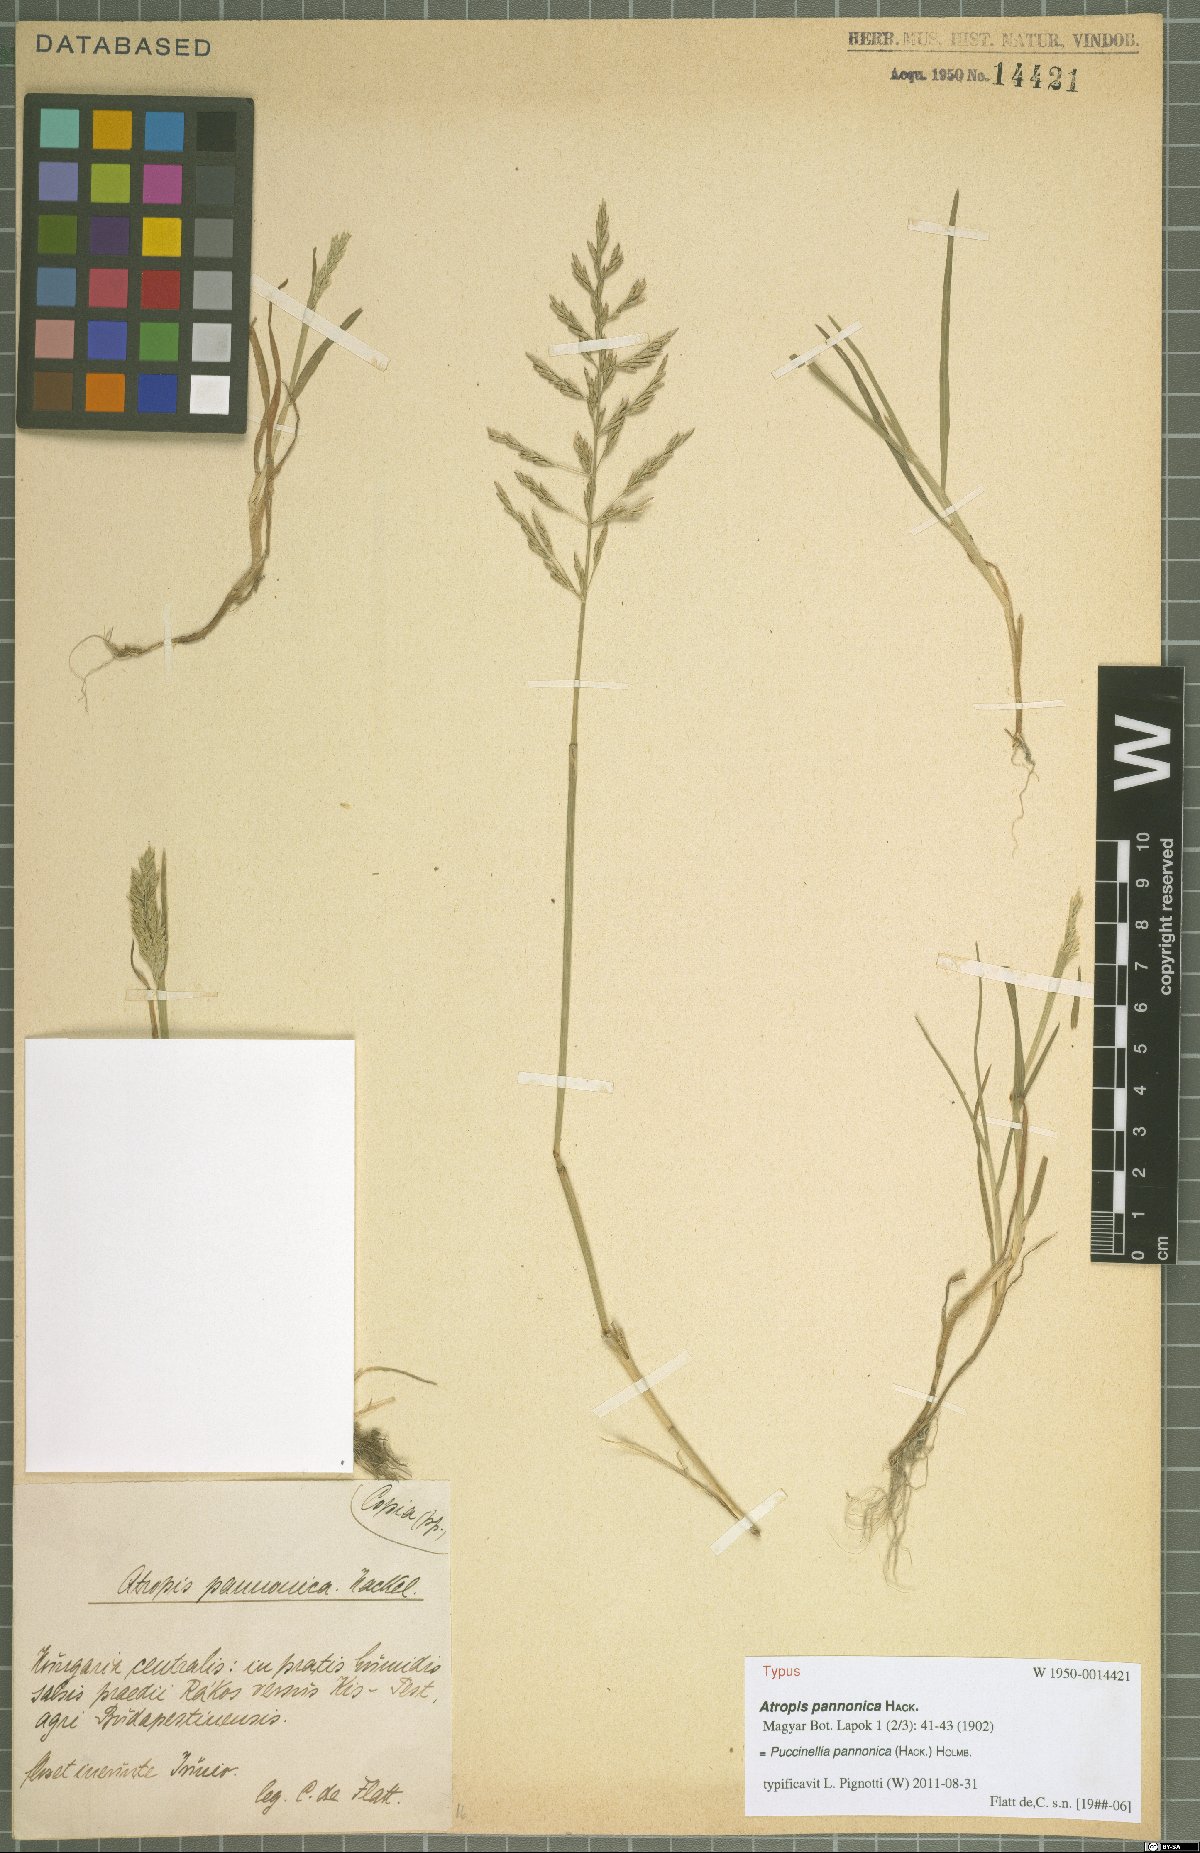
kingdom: Plantae
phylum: Tracheophyta
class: Liliopsida
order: Poales
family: Poaceae
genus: Puccinellia
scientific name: Puccinellia pannonica
